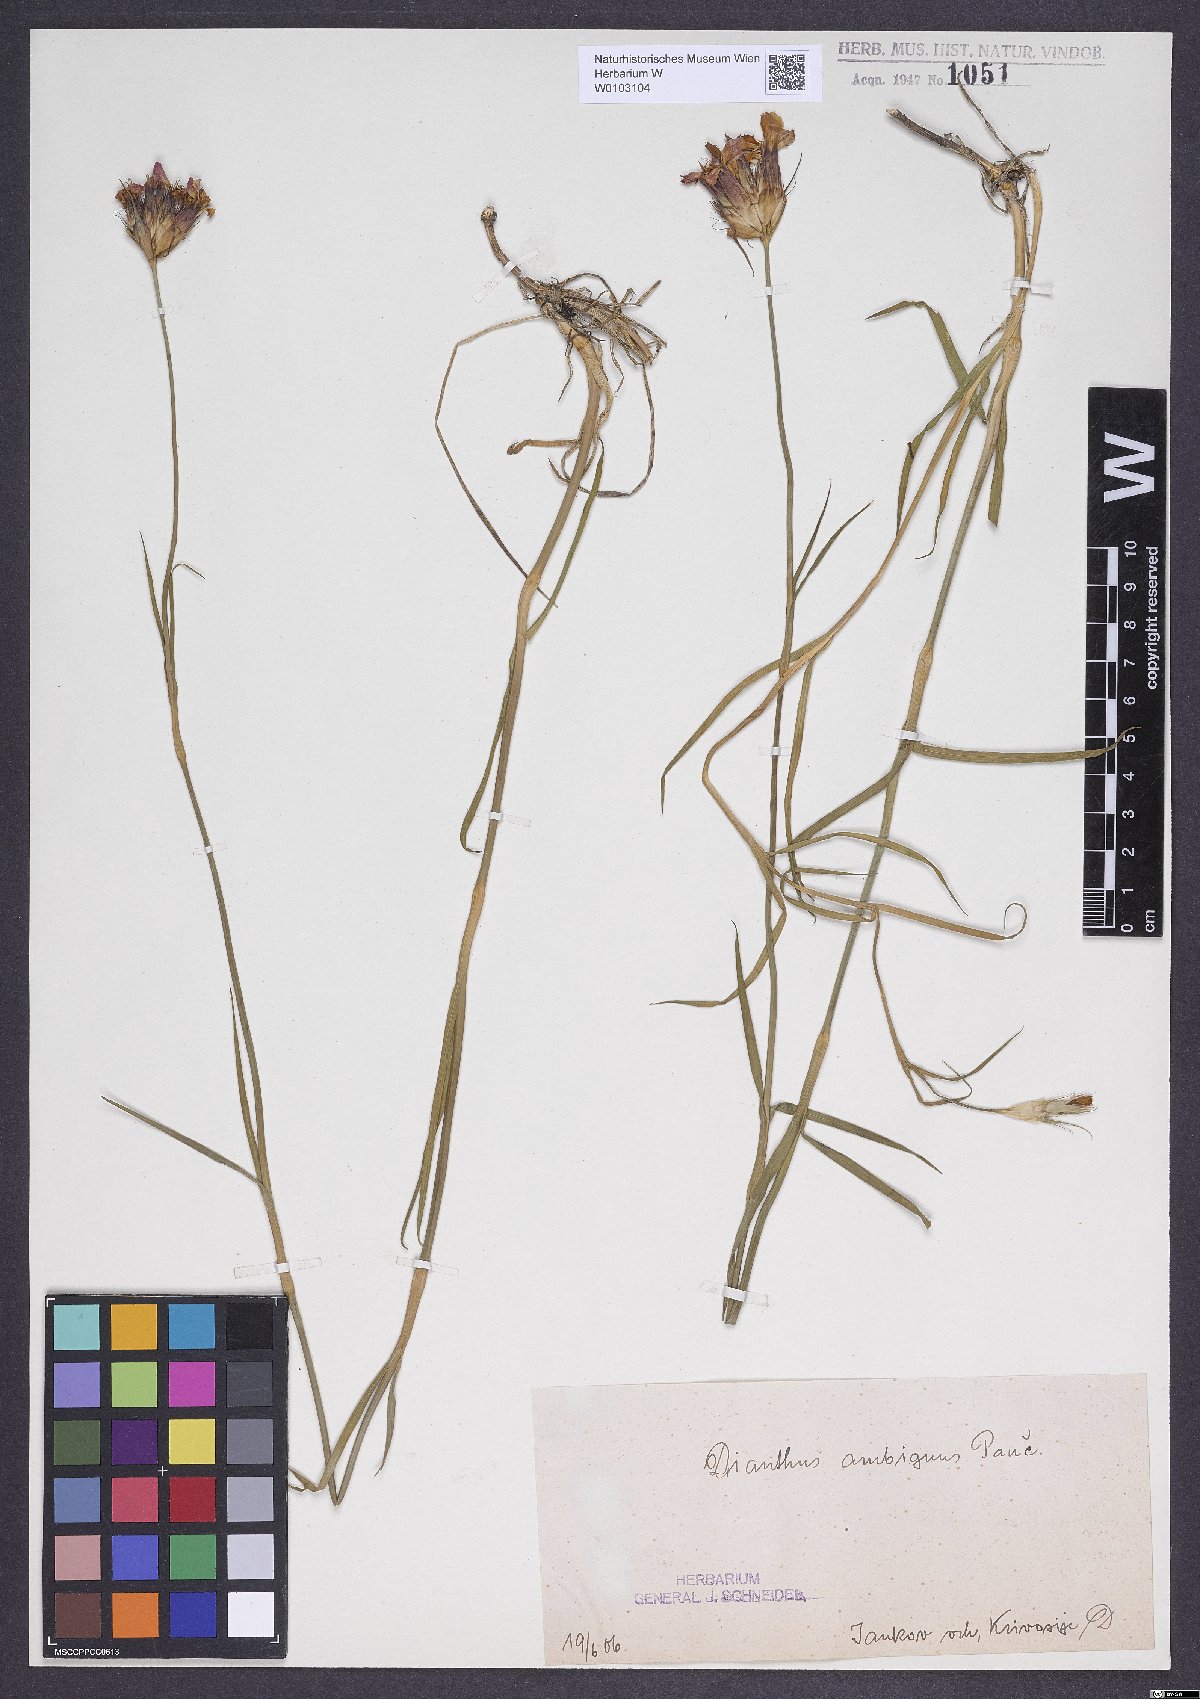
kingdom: Plantae
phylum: Tracheophyta
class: Magnoliopsida
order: Caryophyllales
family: Caryophyllaceae
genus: Dianthus
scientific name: Dianthus cruentus
